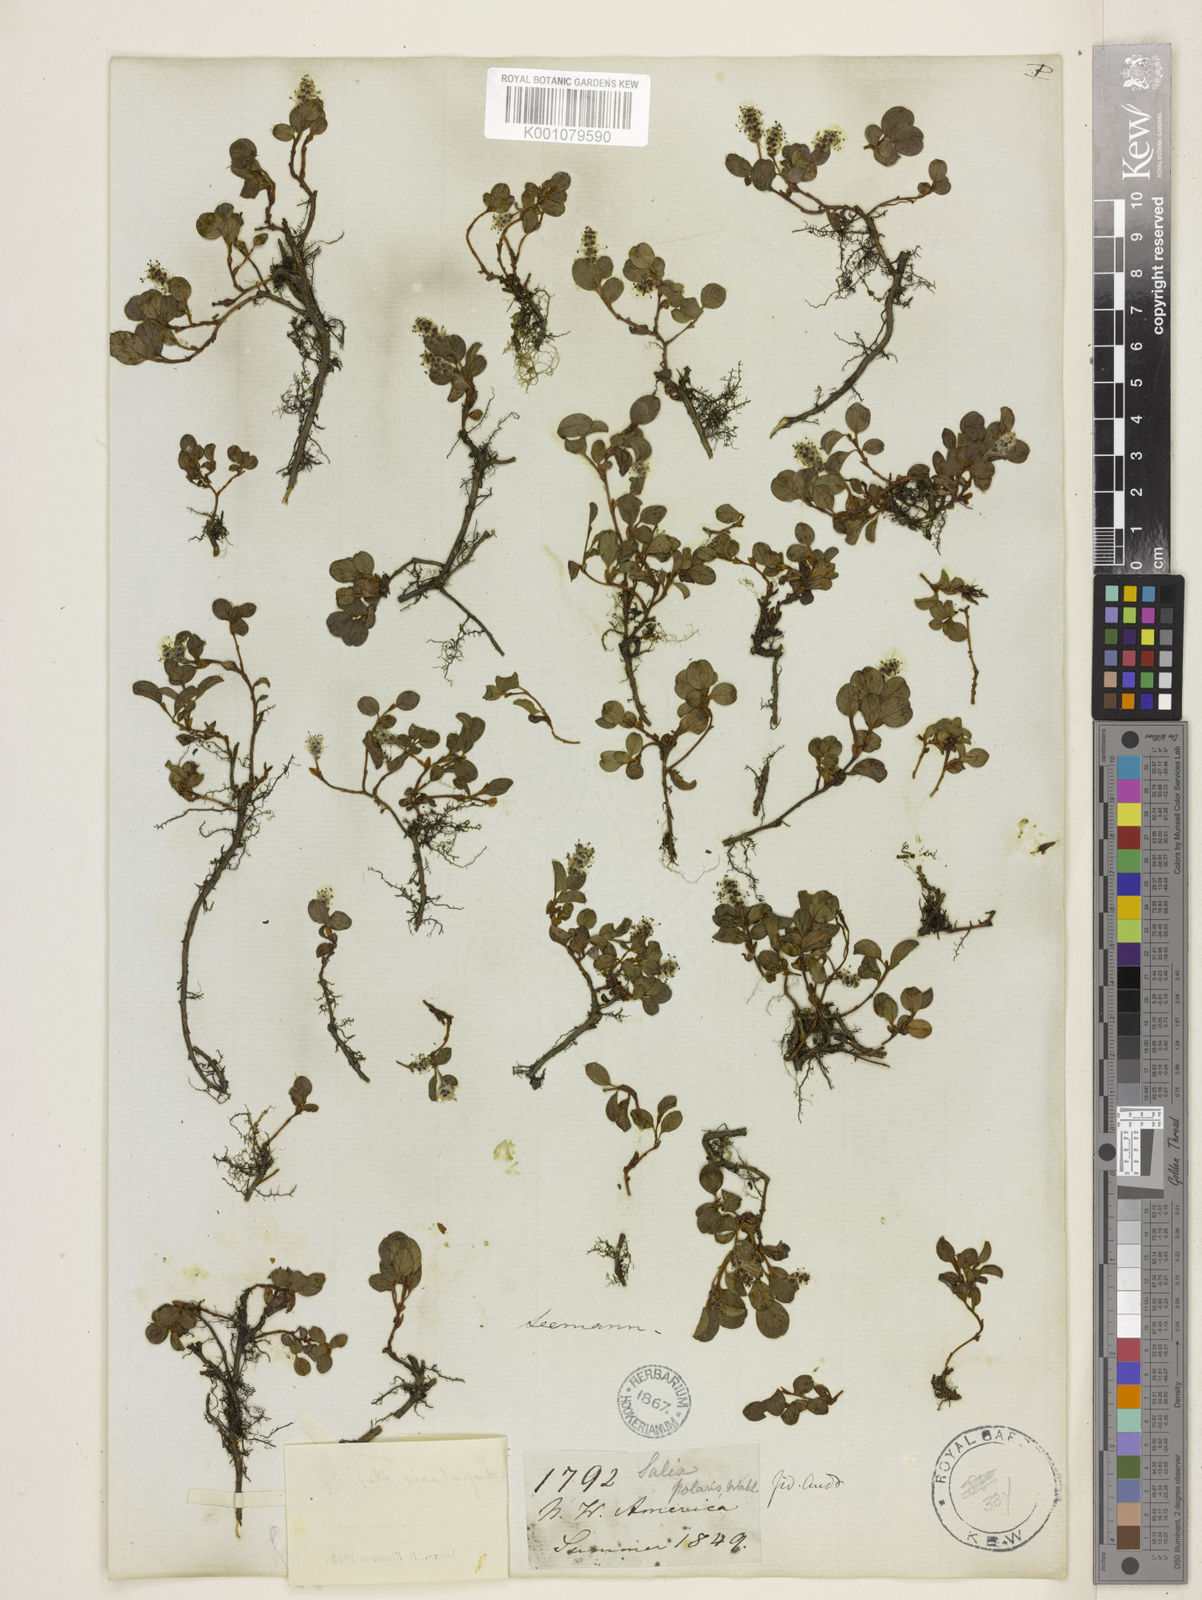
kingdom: Plantae
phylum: Tracheophyta
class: Magnoliopsida
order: Malpighiales
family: Salicaceae
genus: Salix
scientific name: Salix polaris
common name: Polar willow
